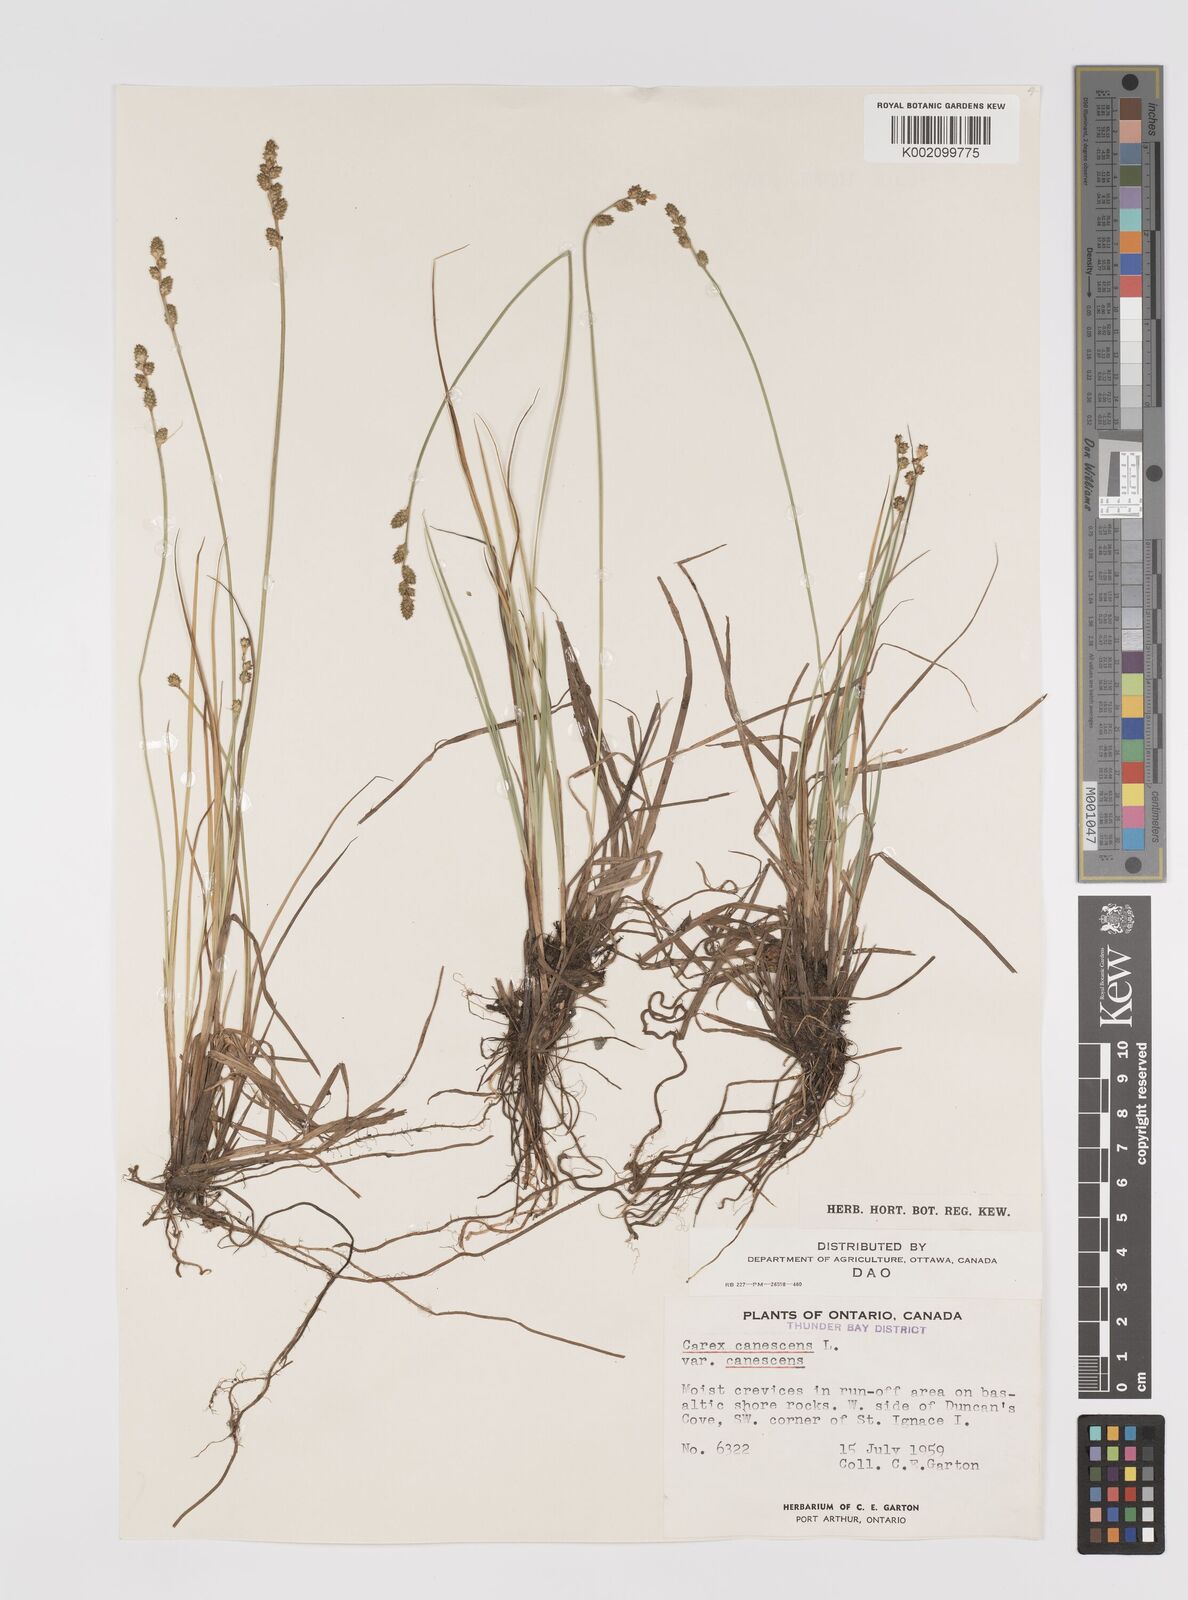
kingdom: Plantae
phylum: Tracheophyta
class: Liliopsida
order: Poales
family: Cyperaceae
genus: Carex
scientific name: Carex curta
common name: White sedge
